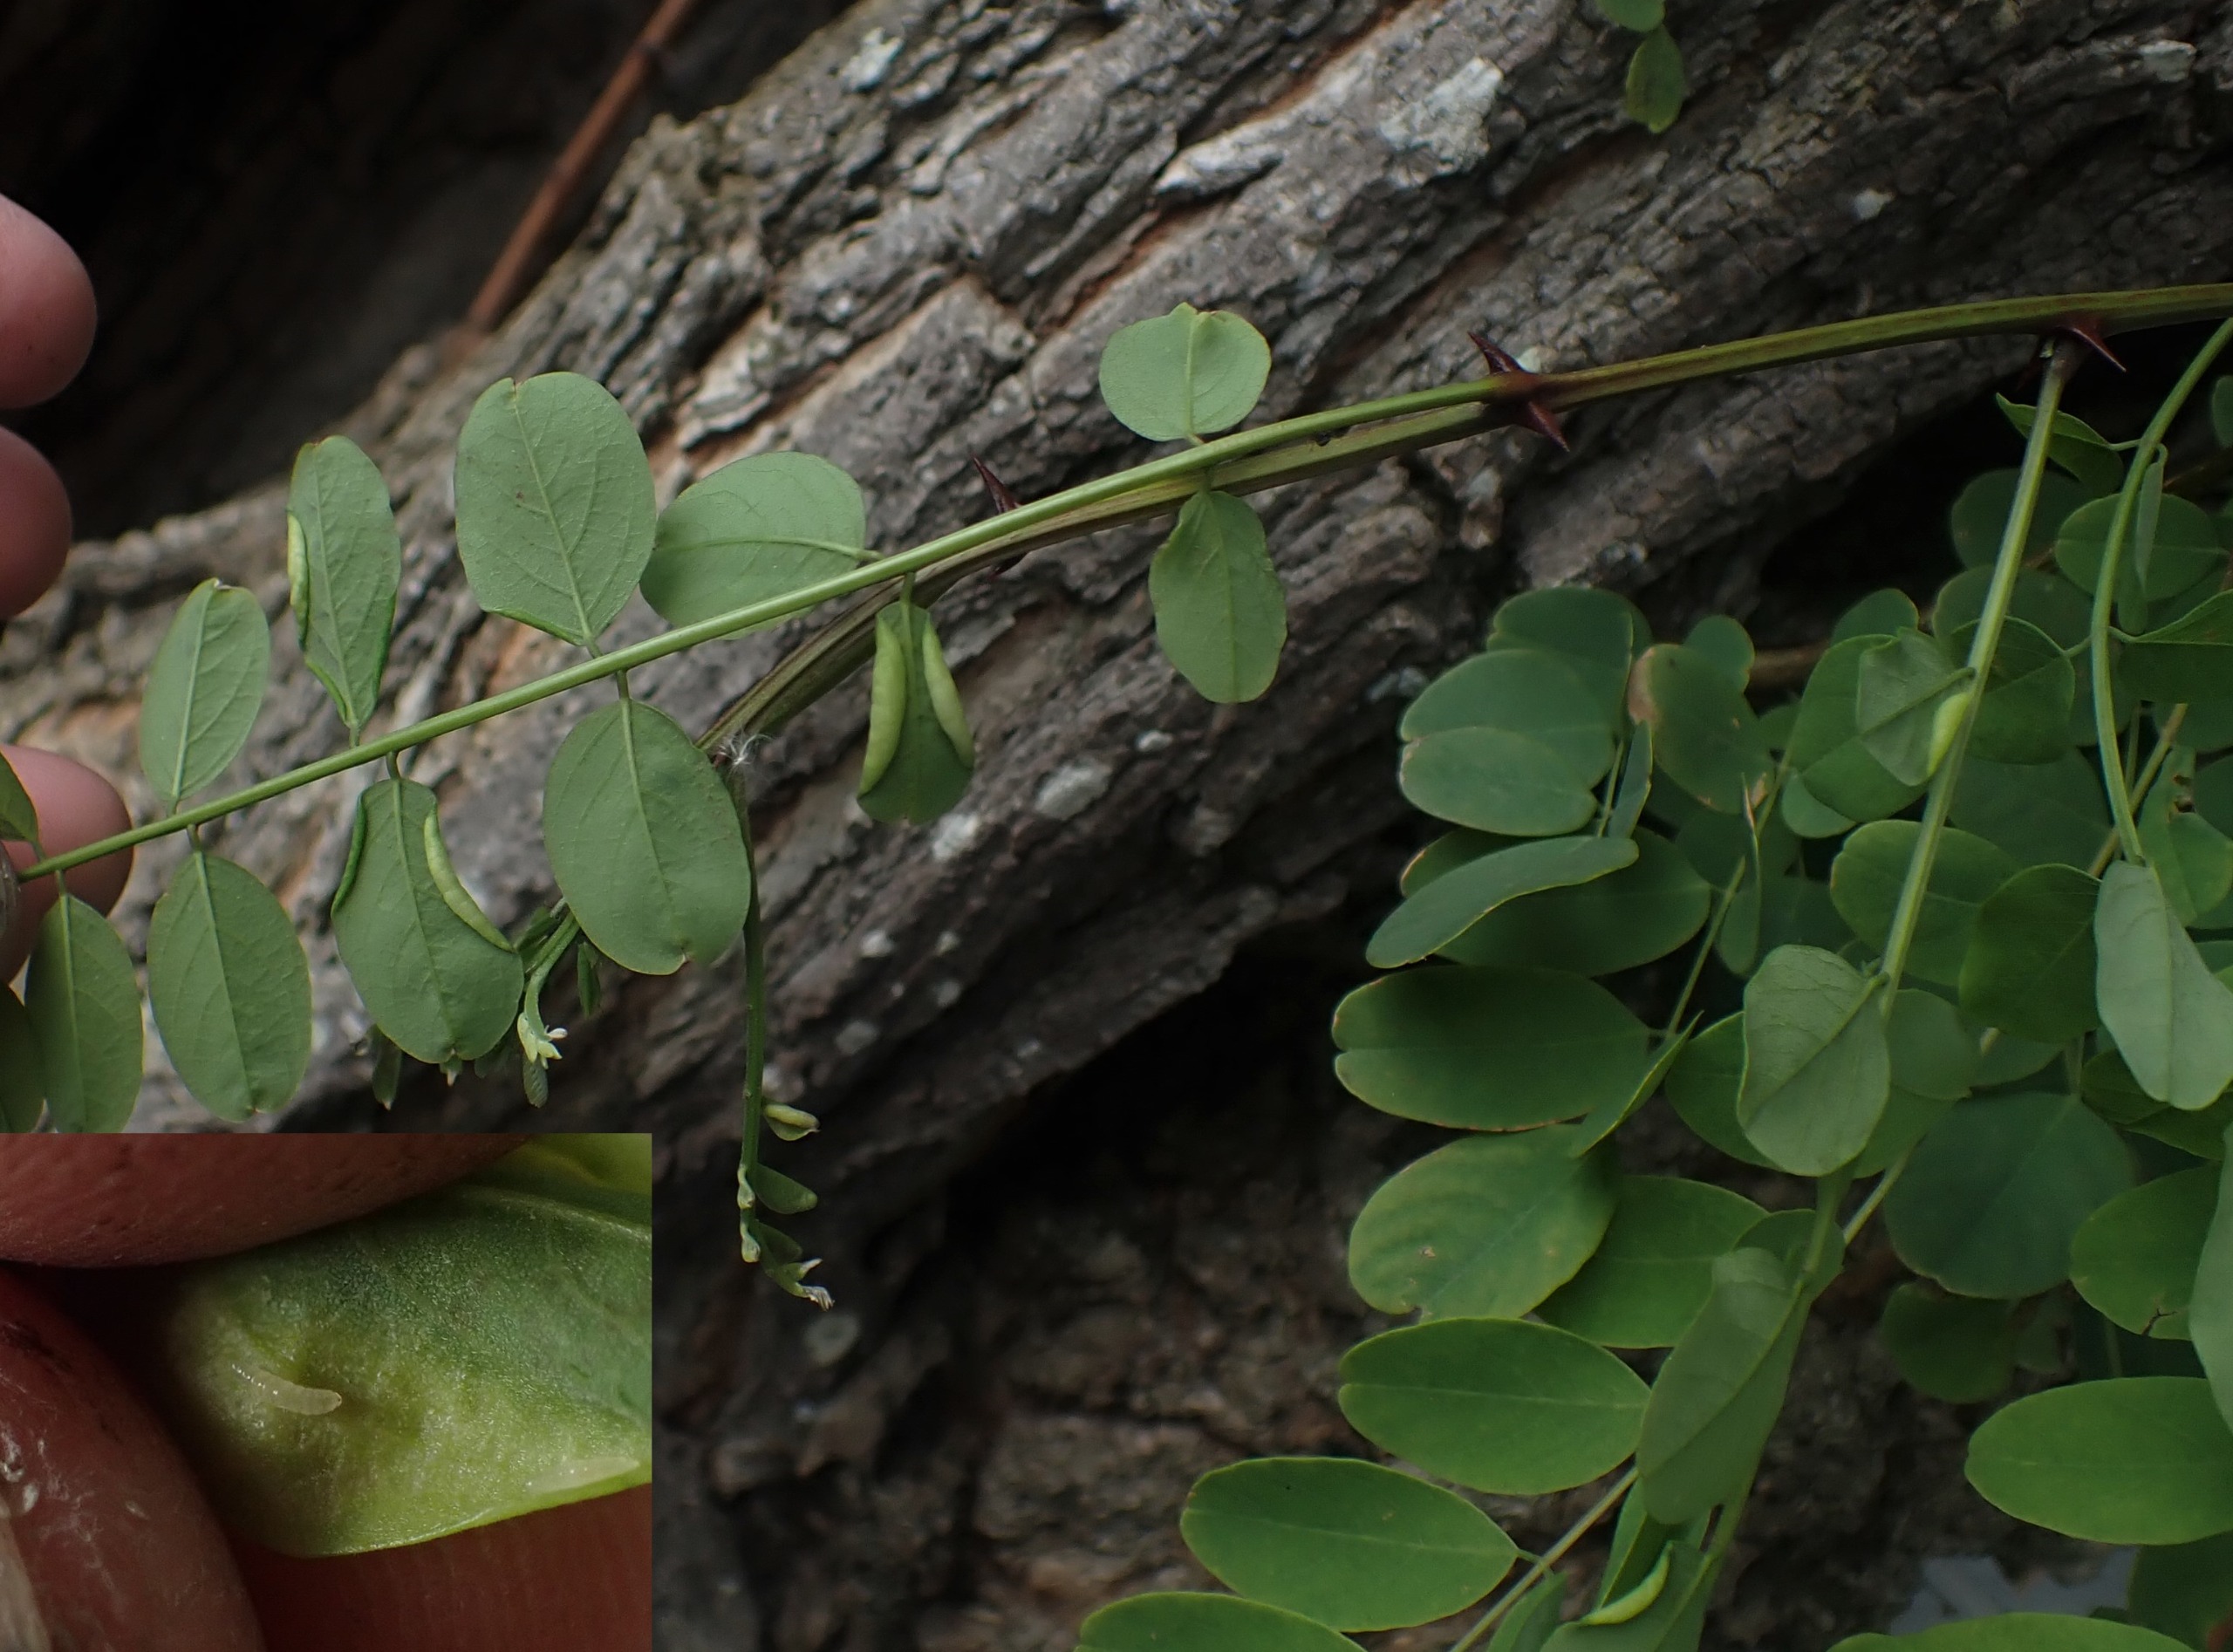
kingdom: Animalia
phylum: Arthropoda
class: Insecta
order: Diptera
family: Cecidomyiidae
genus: Obolodiplosis
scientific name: Obolodiplosis robiniae
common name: Robiniegalmyg
